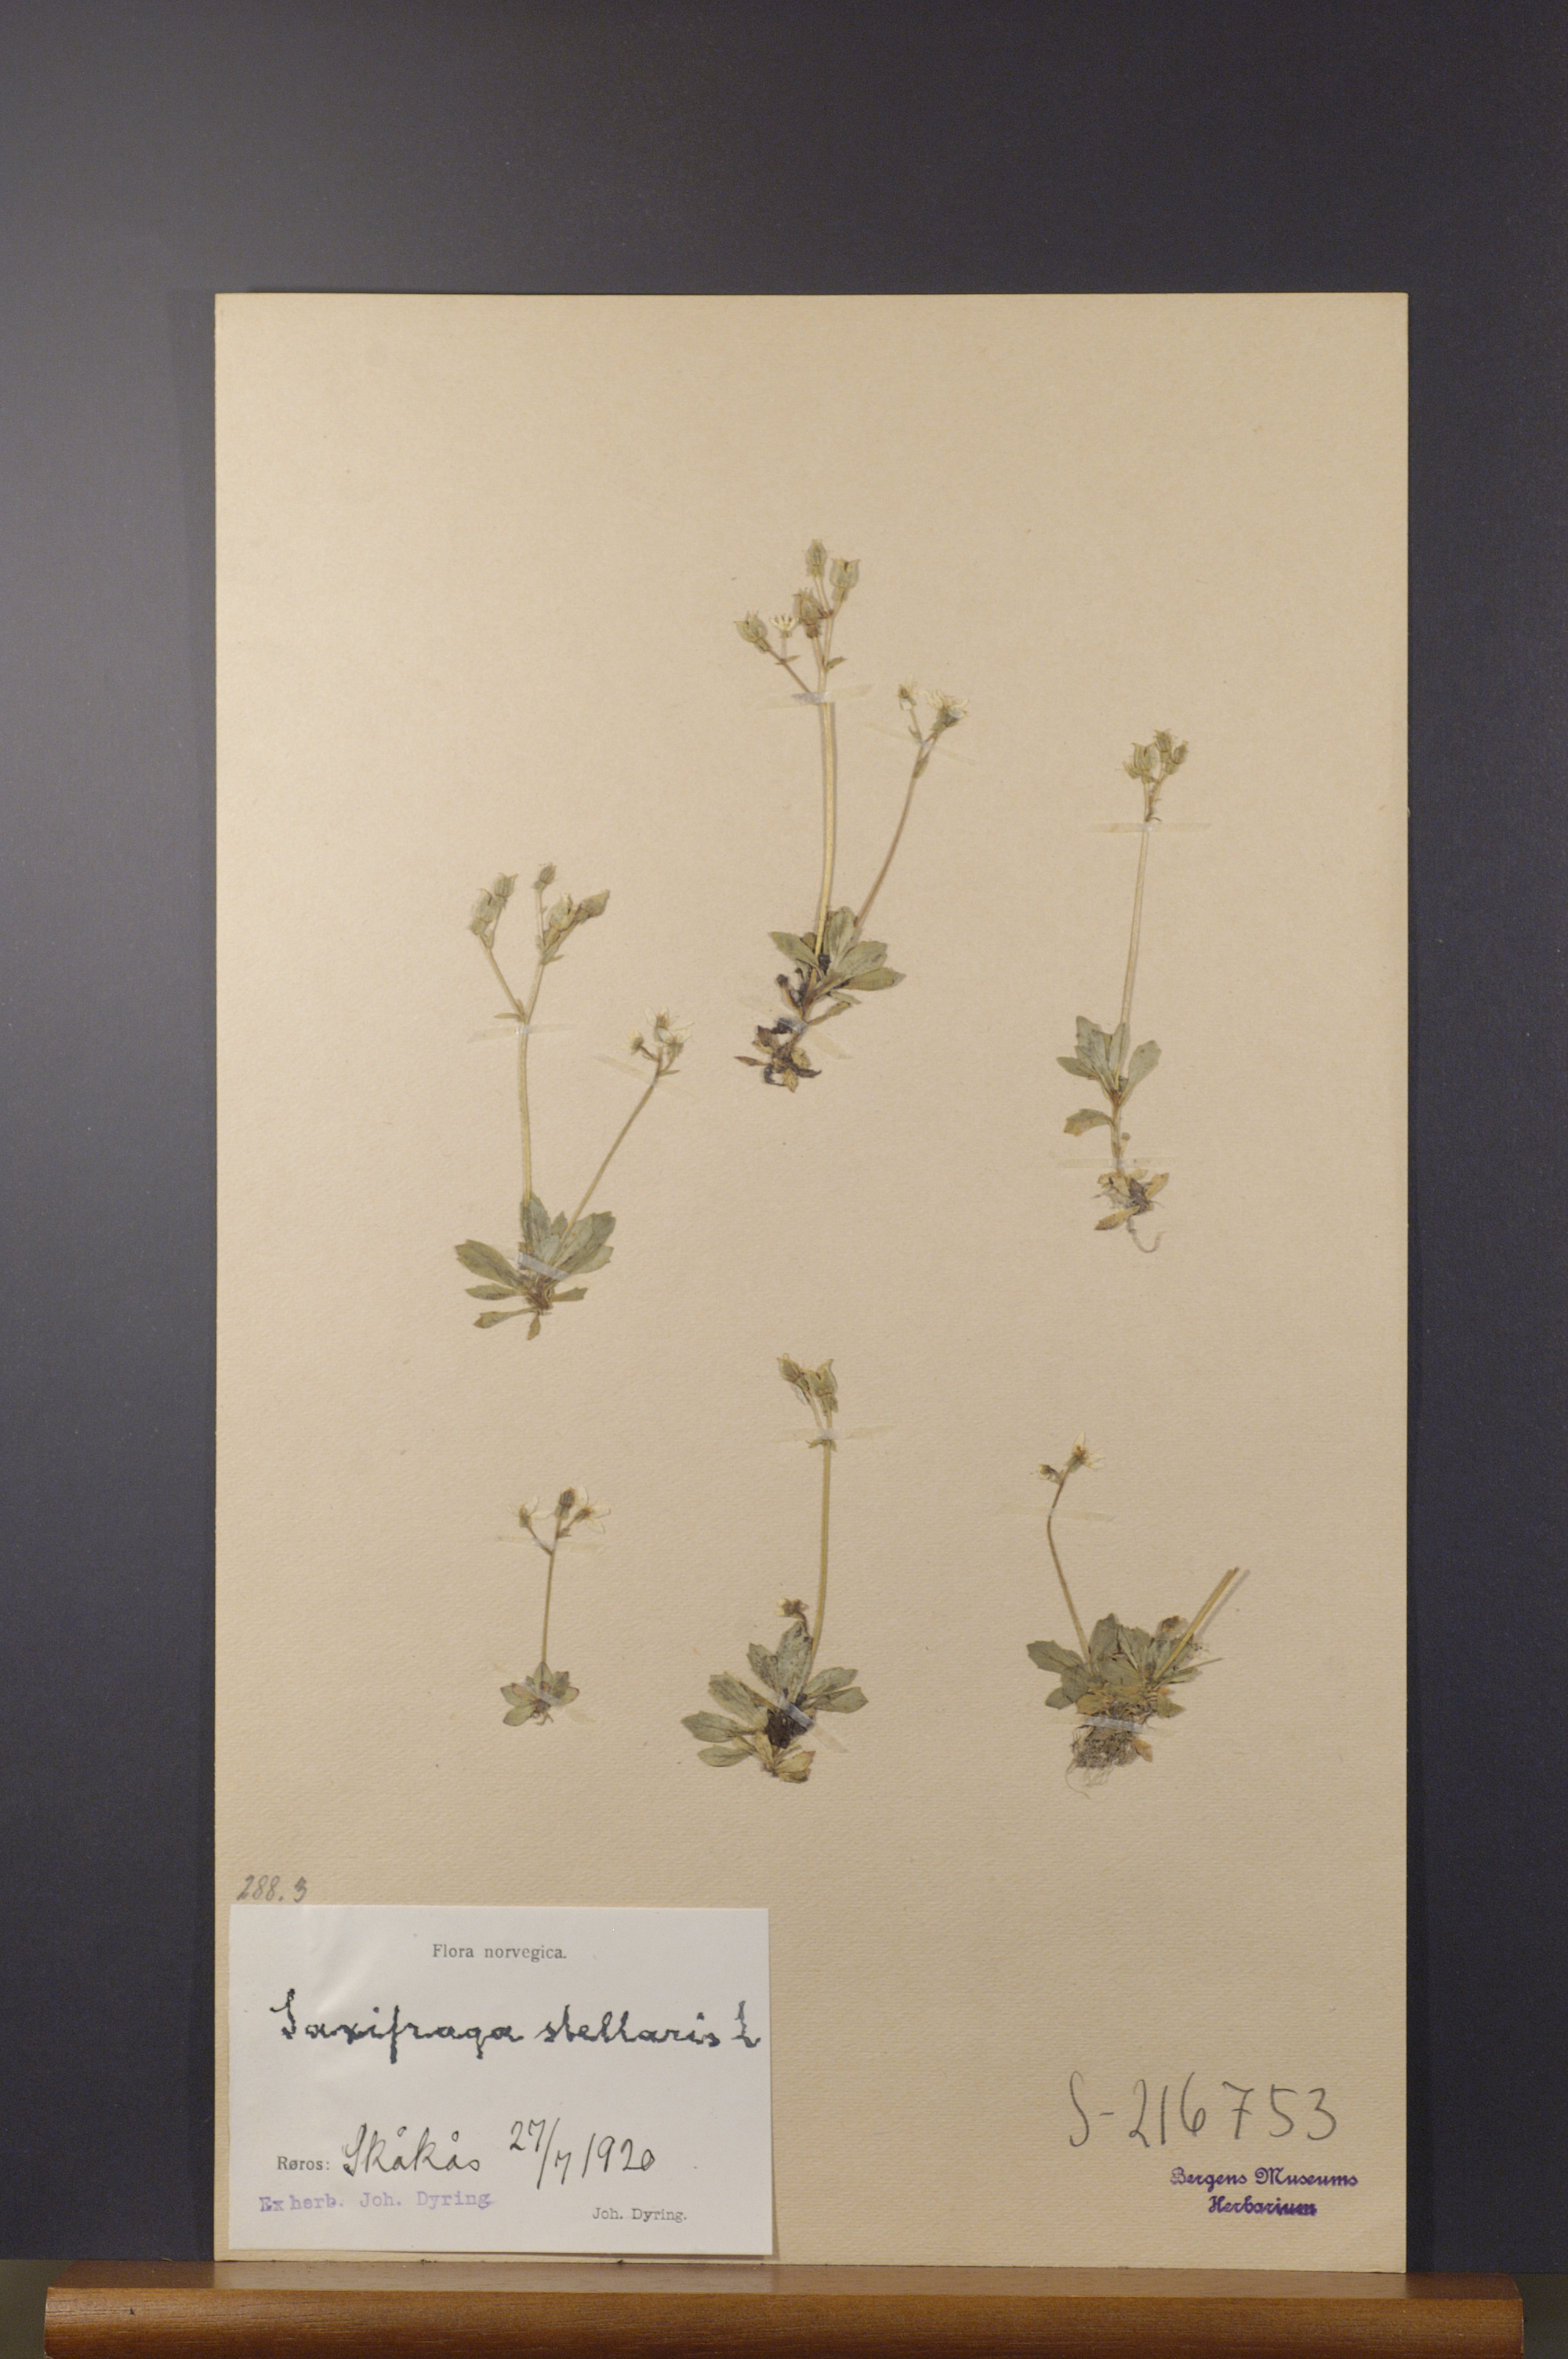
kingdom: Plantae
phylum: Tracheophyta
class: Magnoliopsida
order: Saxifragales
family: Saxifragaceae
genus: Micranthes
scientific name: Micranthes stellaris
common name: Starry saxifrage
